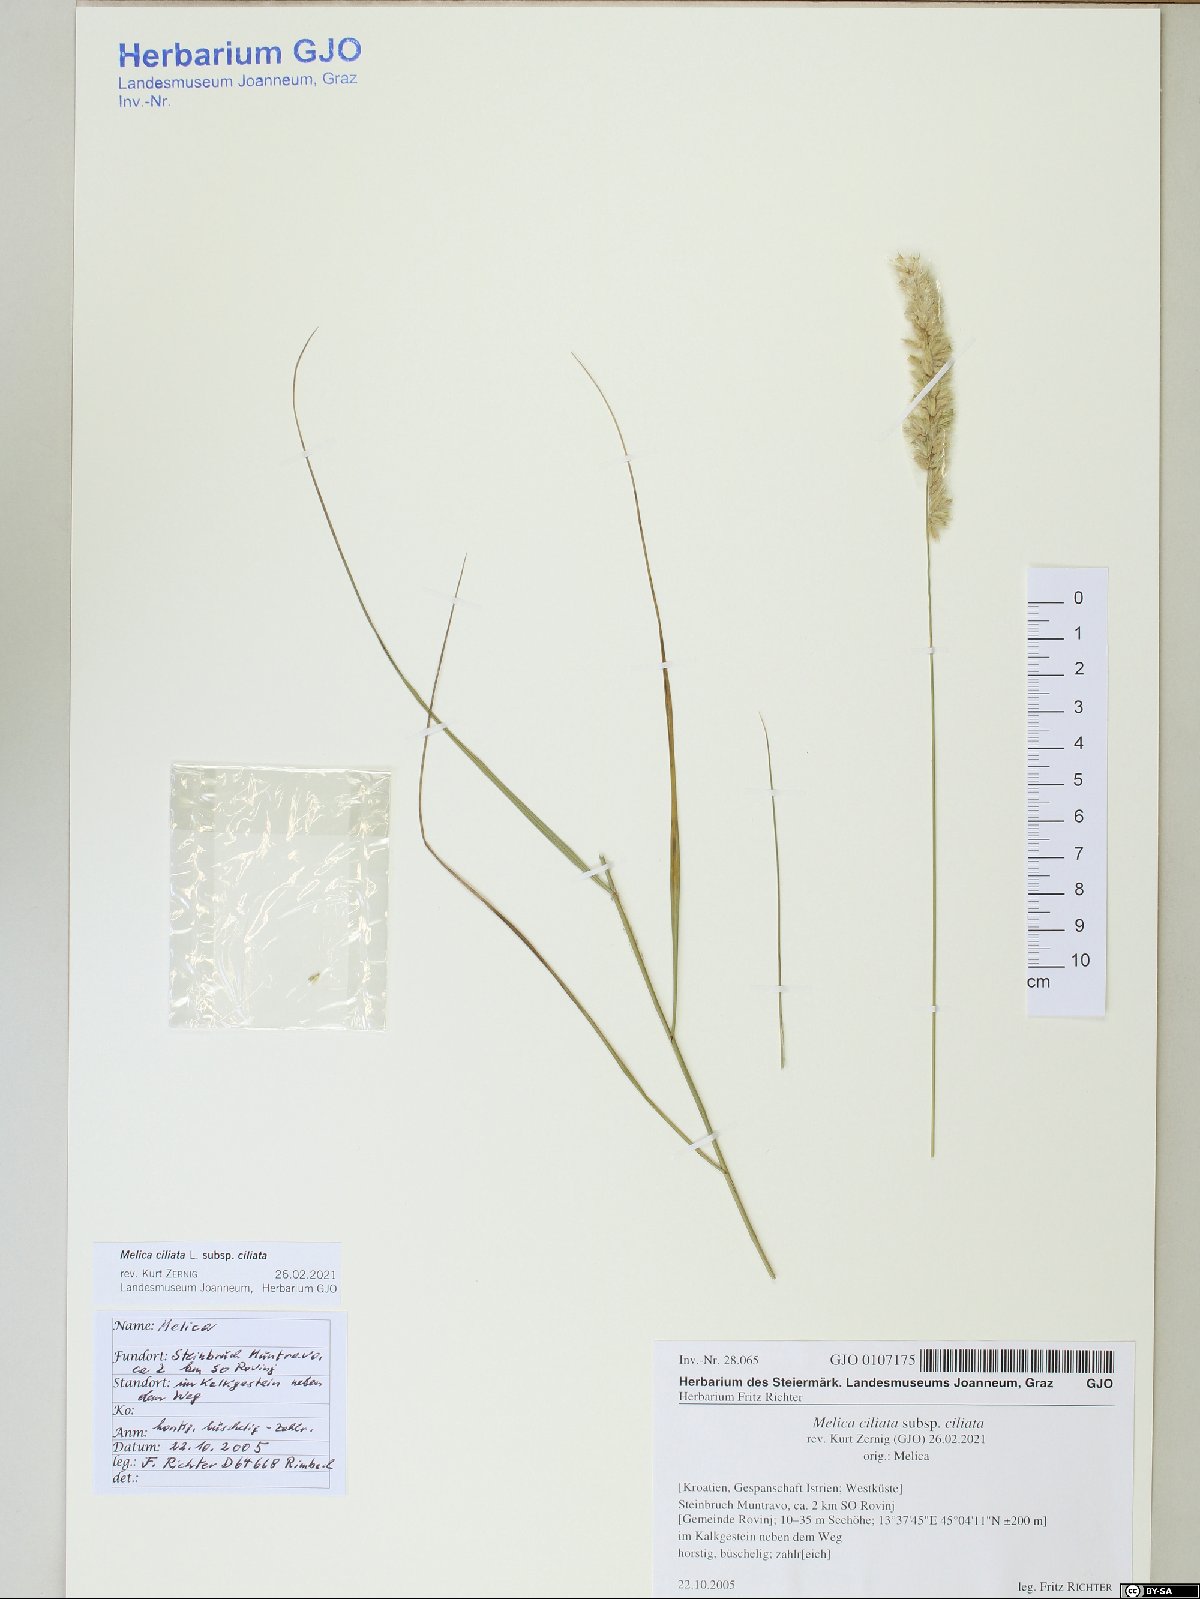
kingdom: Plantae
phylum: Tracheophyta
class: Liliopsida
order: Poales
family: Poaceae
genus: Melica
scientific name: Melica ciliata
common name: Hairy melicgrass
